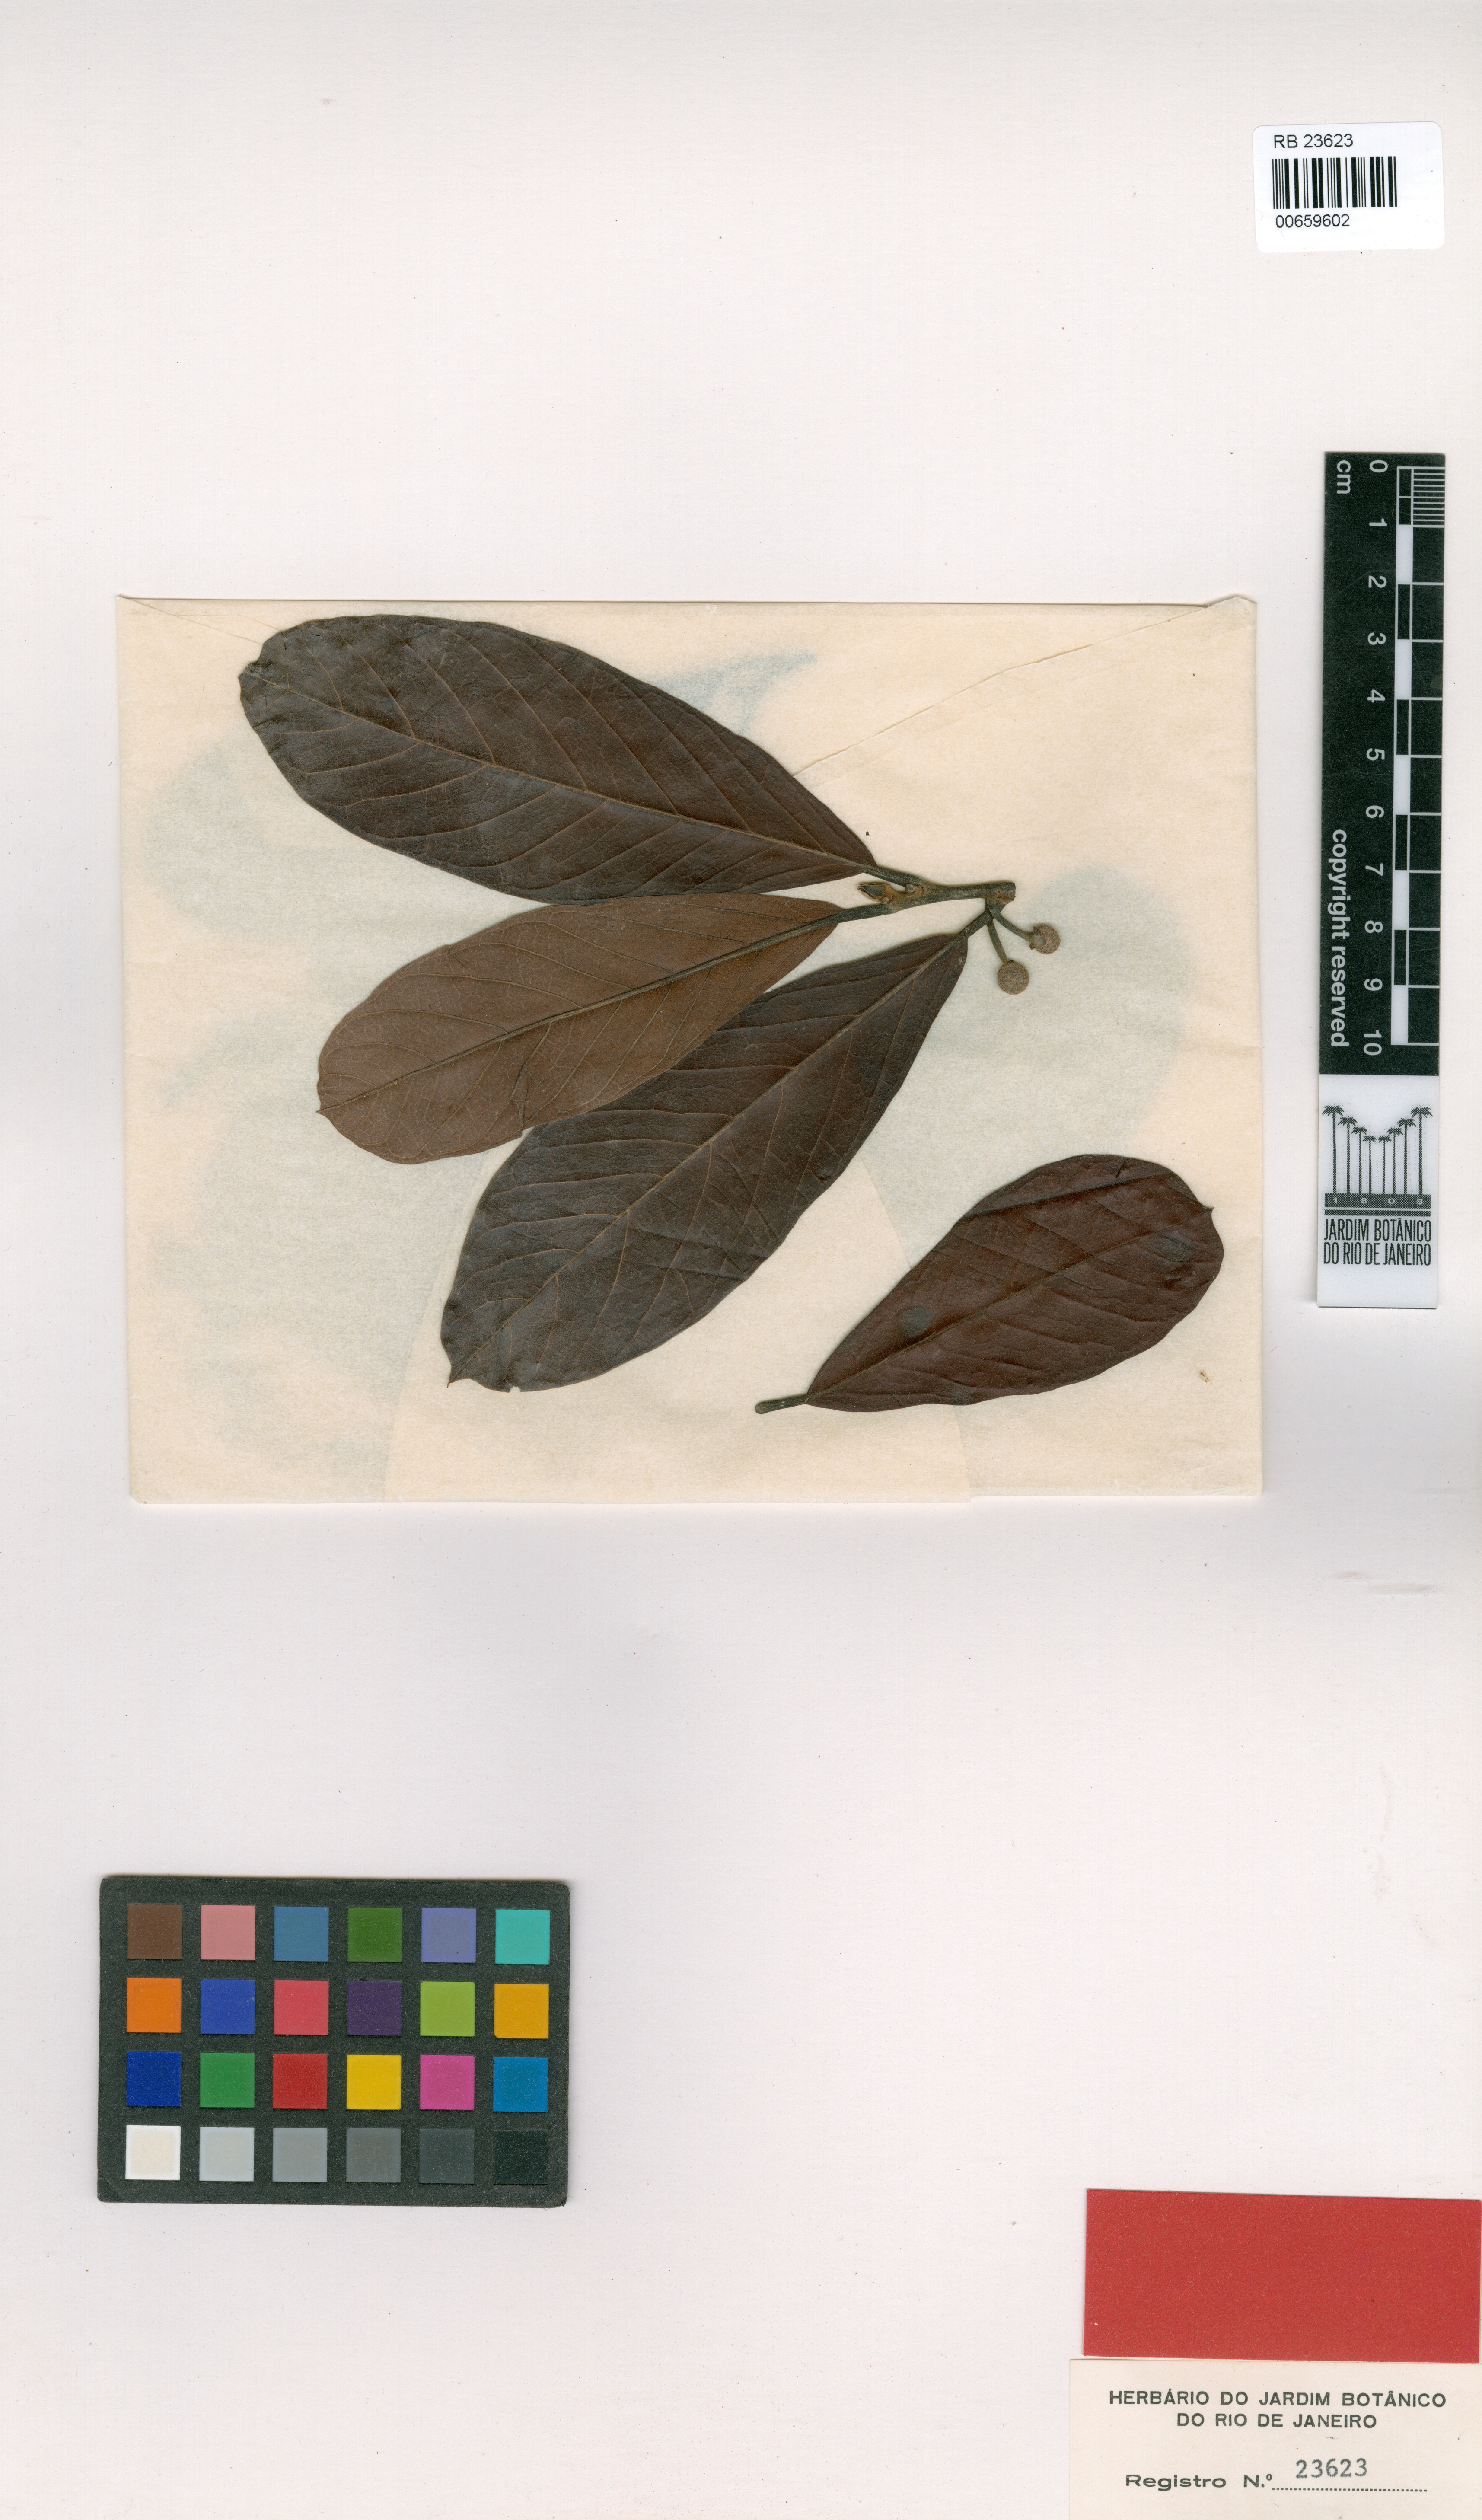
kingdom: Plantae
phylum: Tracheophyta
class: Magnoliopsida
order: Rosales
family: Moraceae
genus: Brosimum
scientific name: Brosimum
